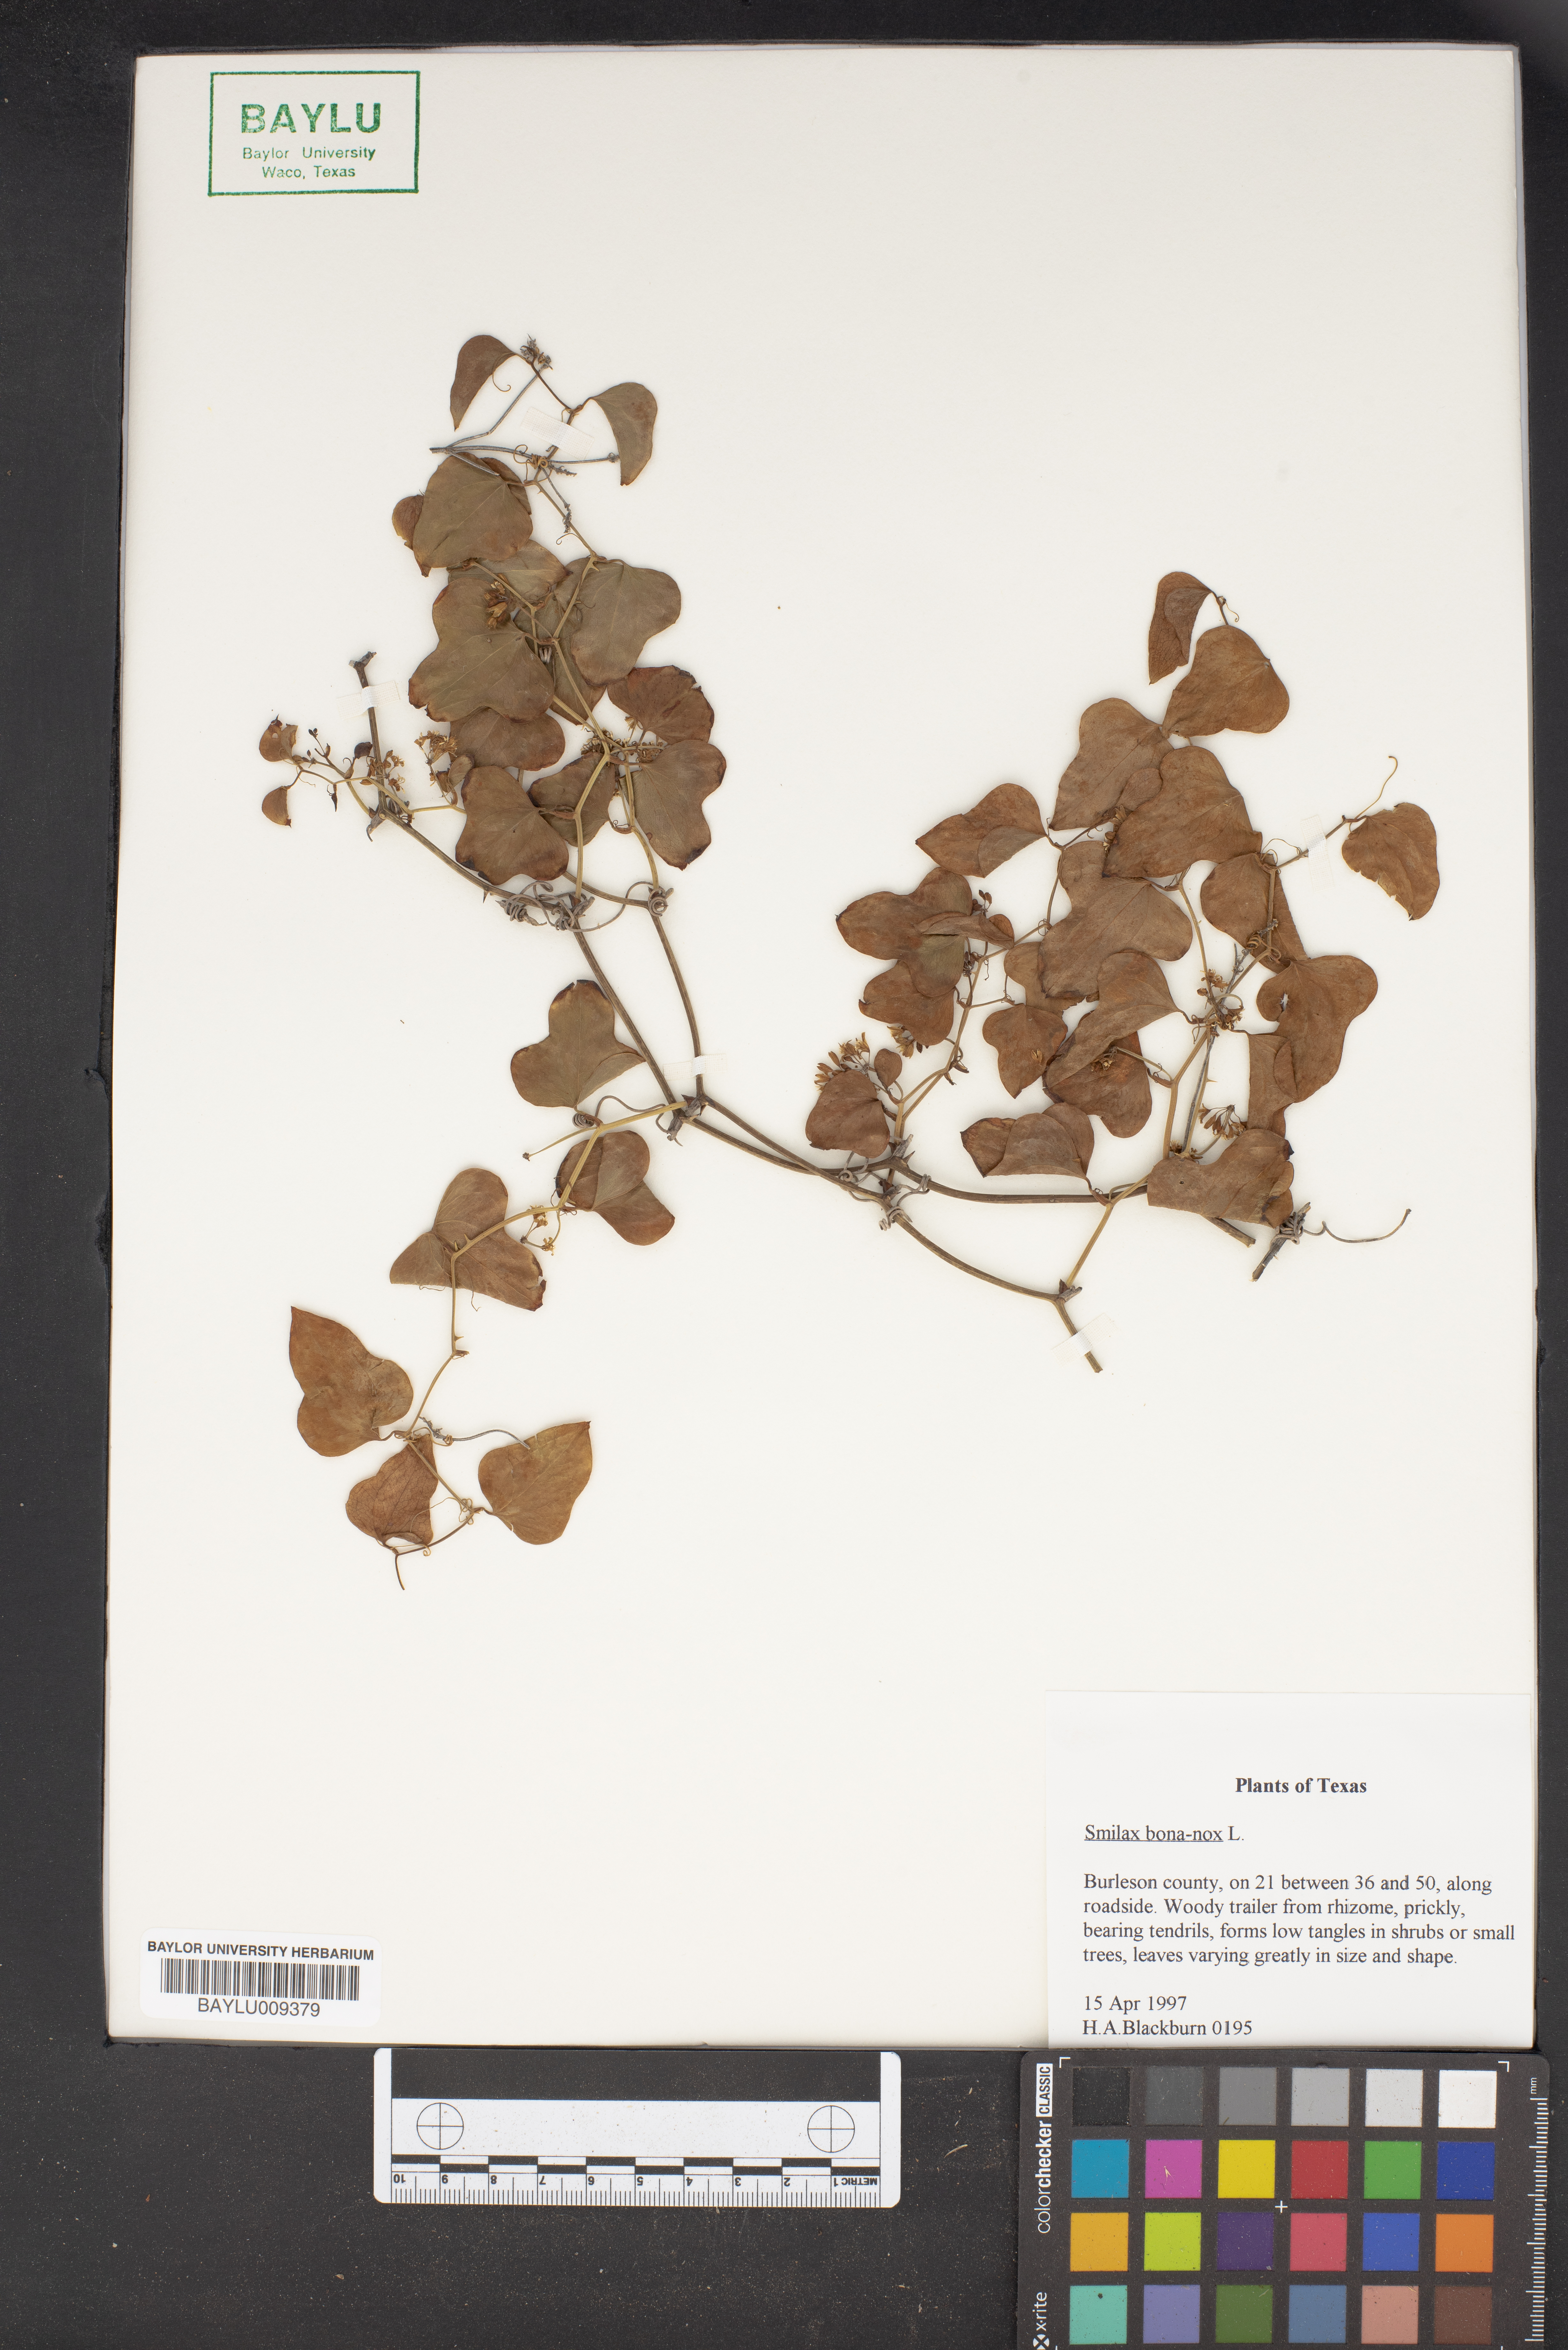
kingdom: Plantae
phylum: Tracheophyta
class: Liliopsida
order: Liliales
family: Smilacaceae
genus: Smilax
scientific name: Smilax bona-nox
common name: Catbrier
